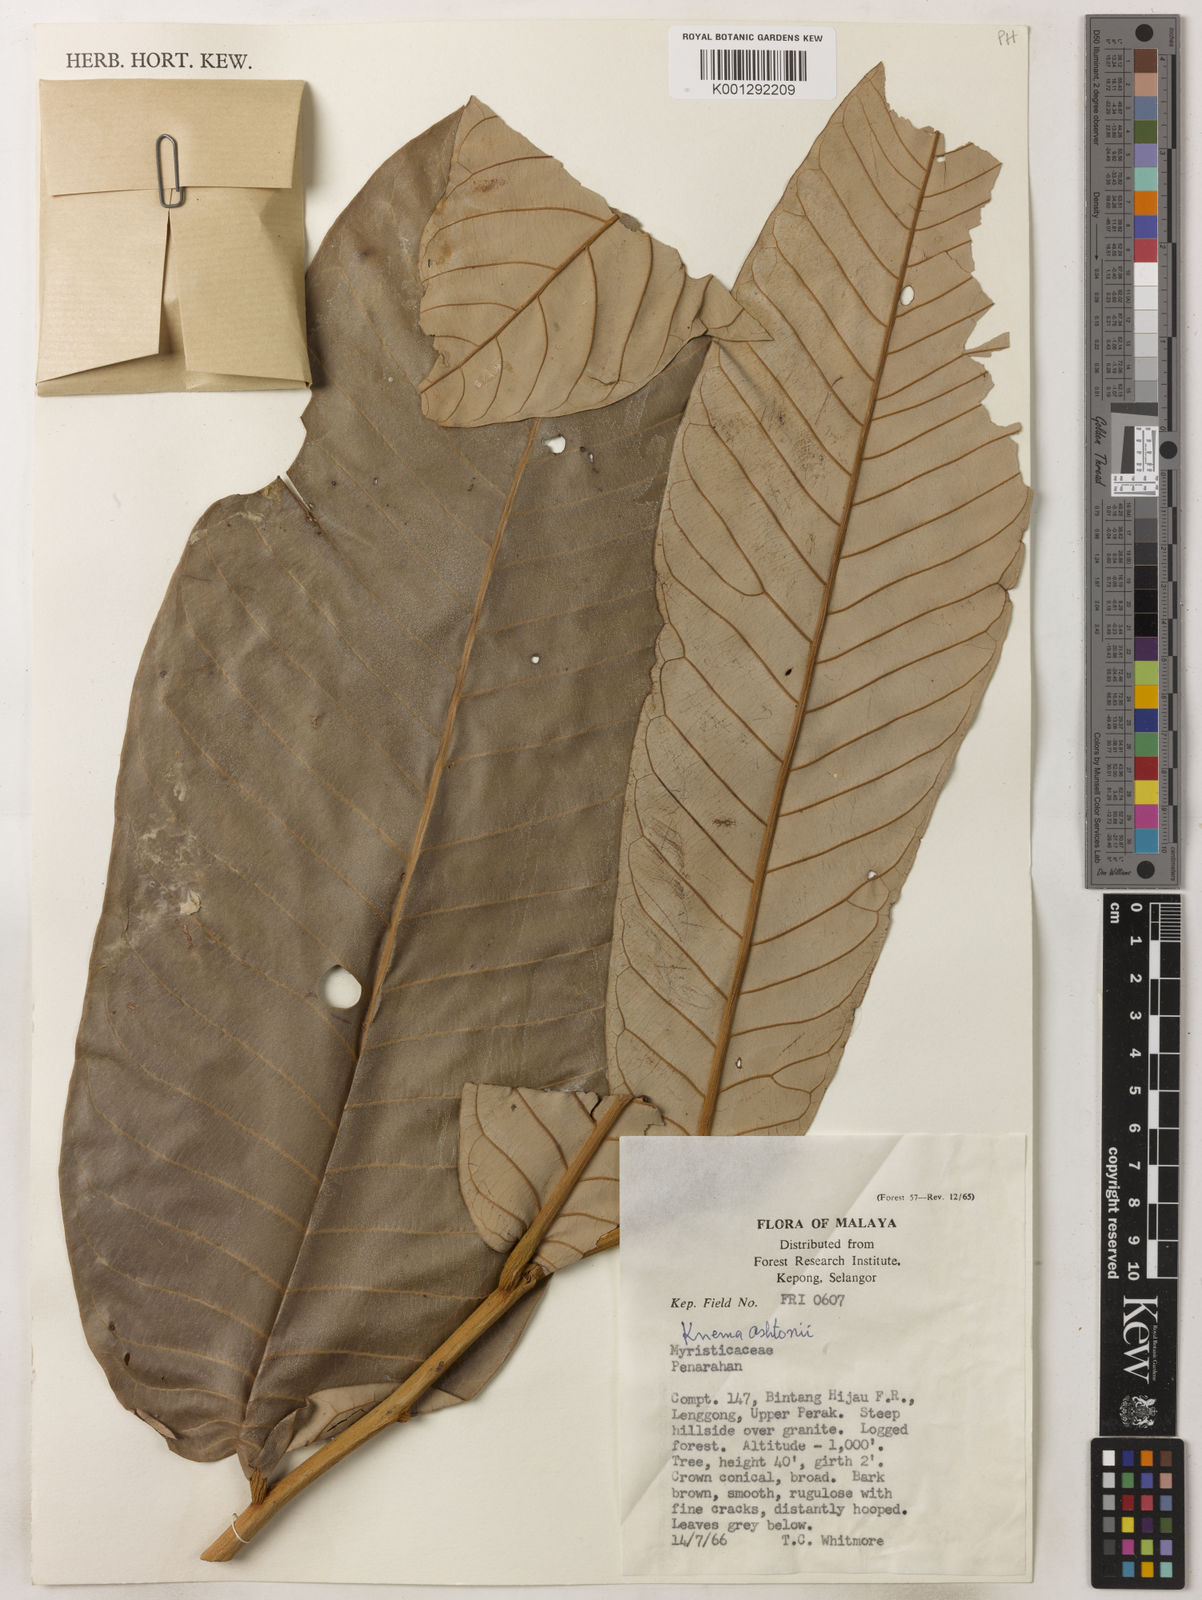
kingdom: Plantae
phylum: Tracheophyta
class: Magnoliopsida
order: Magnoliales
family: Myristicaceae
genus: Knema
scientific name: Knema ashtonii
